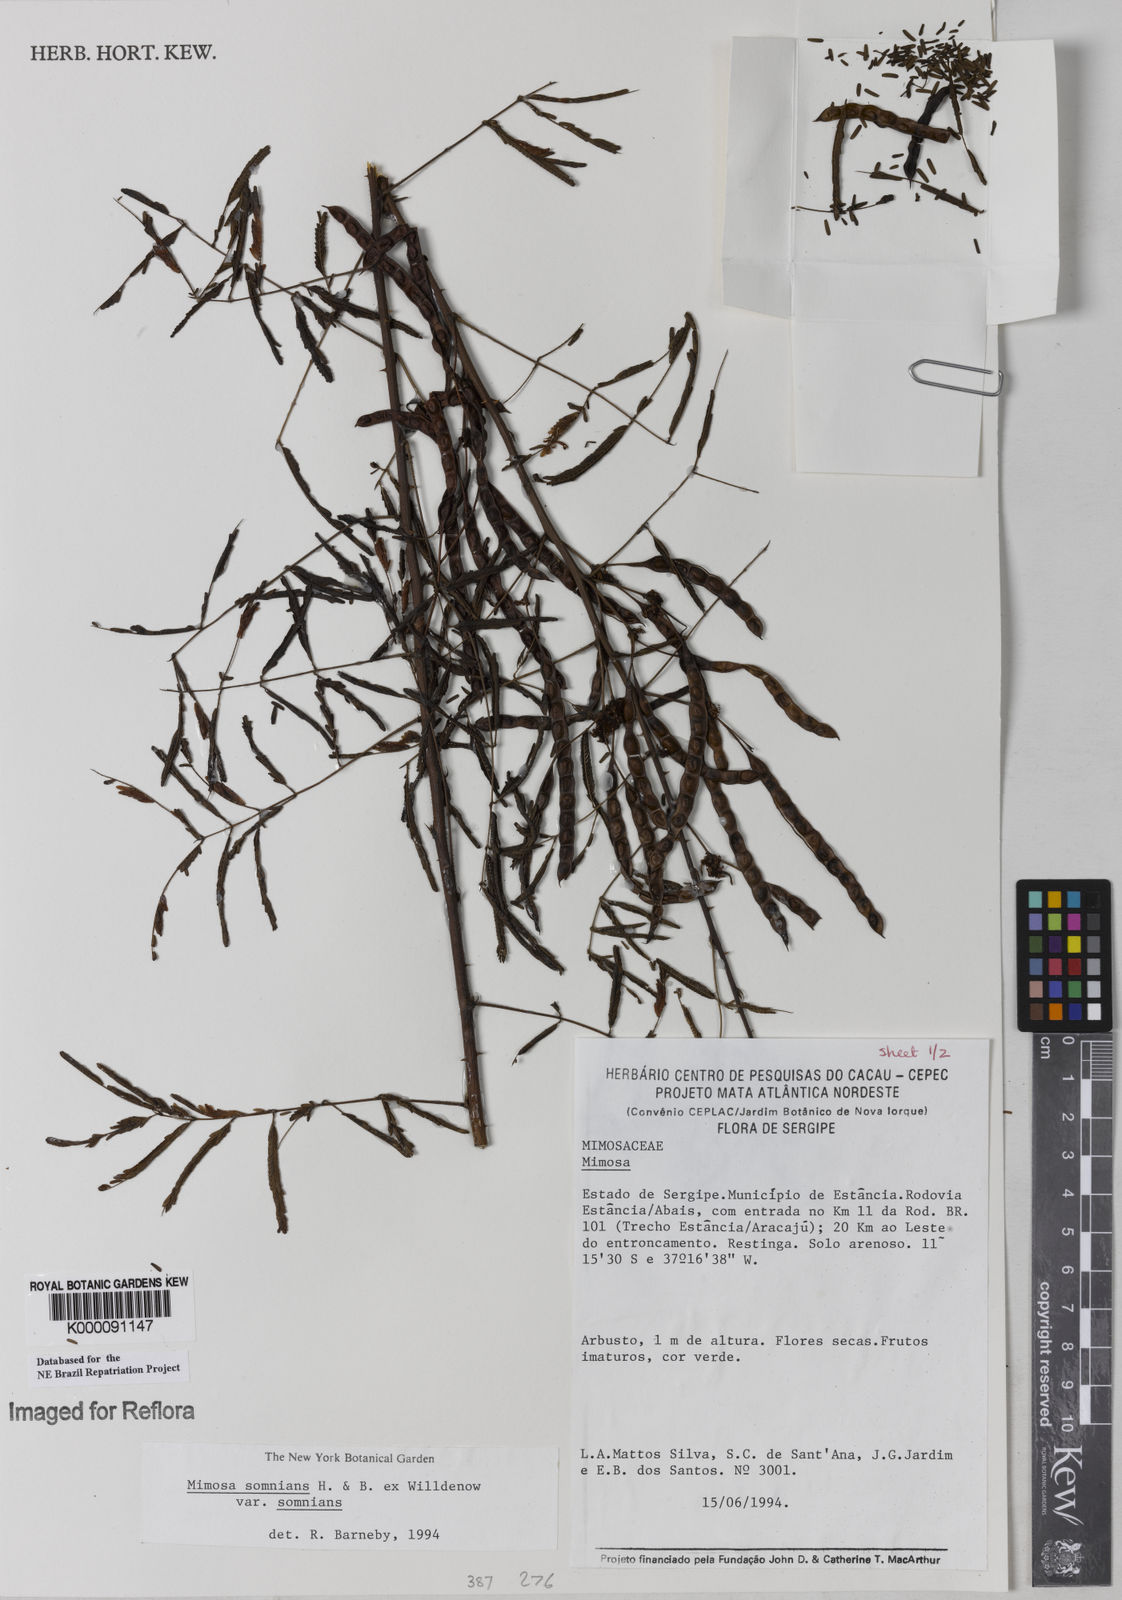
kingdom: Plantae
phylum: Tracheophyta
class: Magnoliopsida
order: Fabales
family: Fabaceae
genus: Mimosa
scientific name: Mimosa somnians
